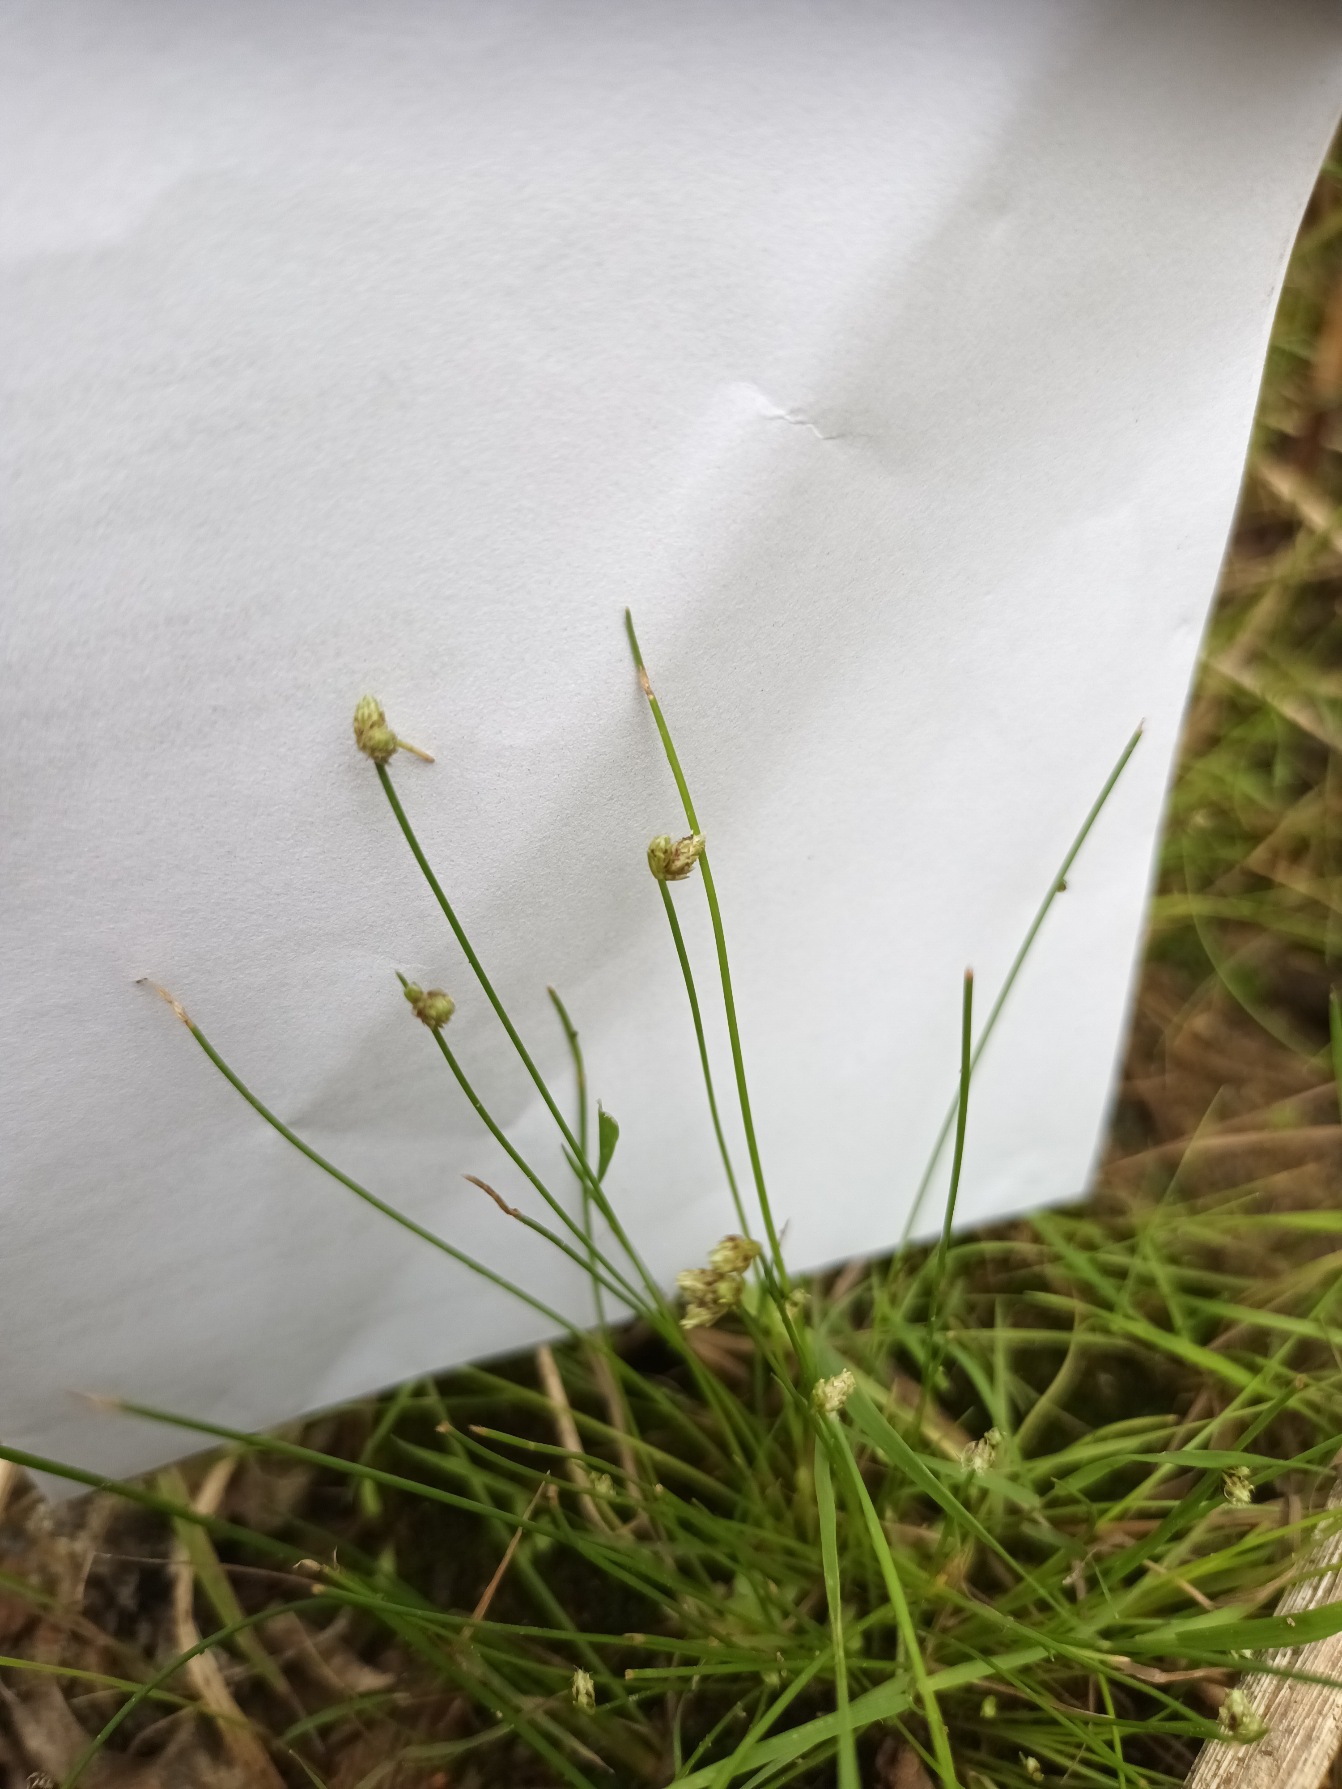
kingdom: Plantae
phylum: Tracheophyta
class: Liliopsida
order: Poales
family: Cyperaceae
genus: Isolepis
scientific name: Isolepis setacea
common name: Børste-kogleaks
